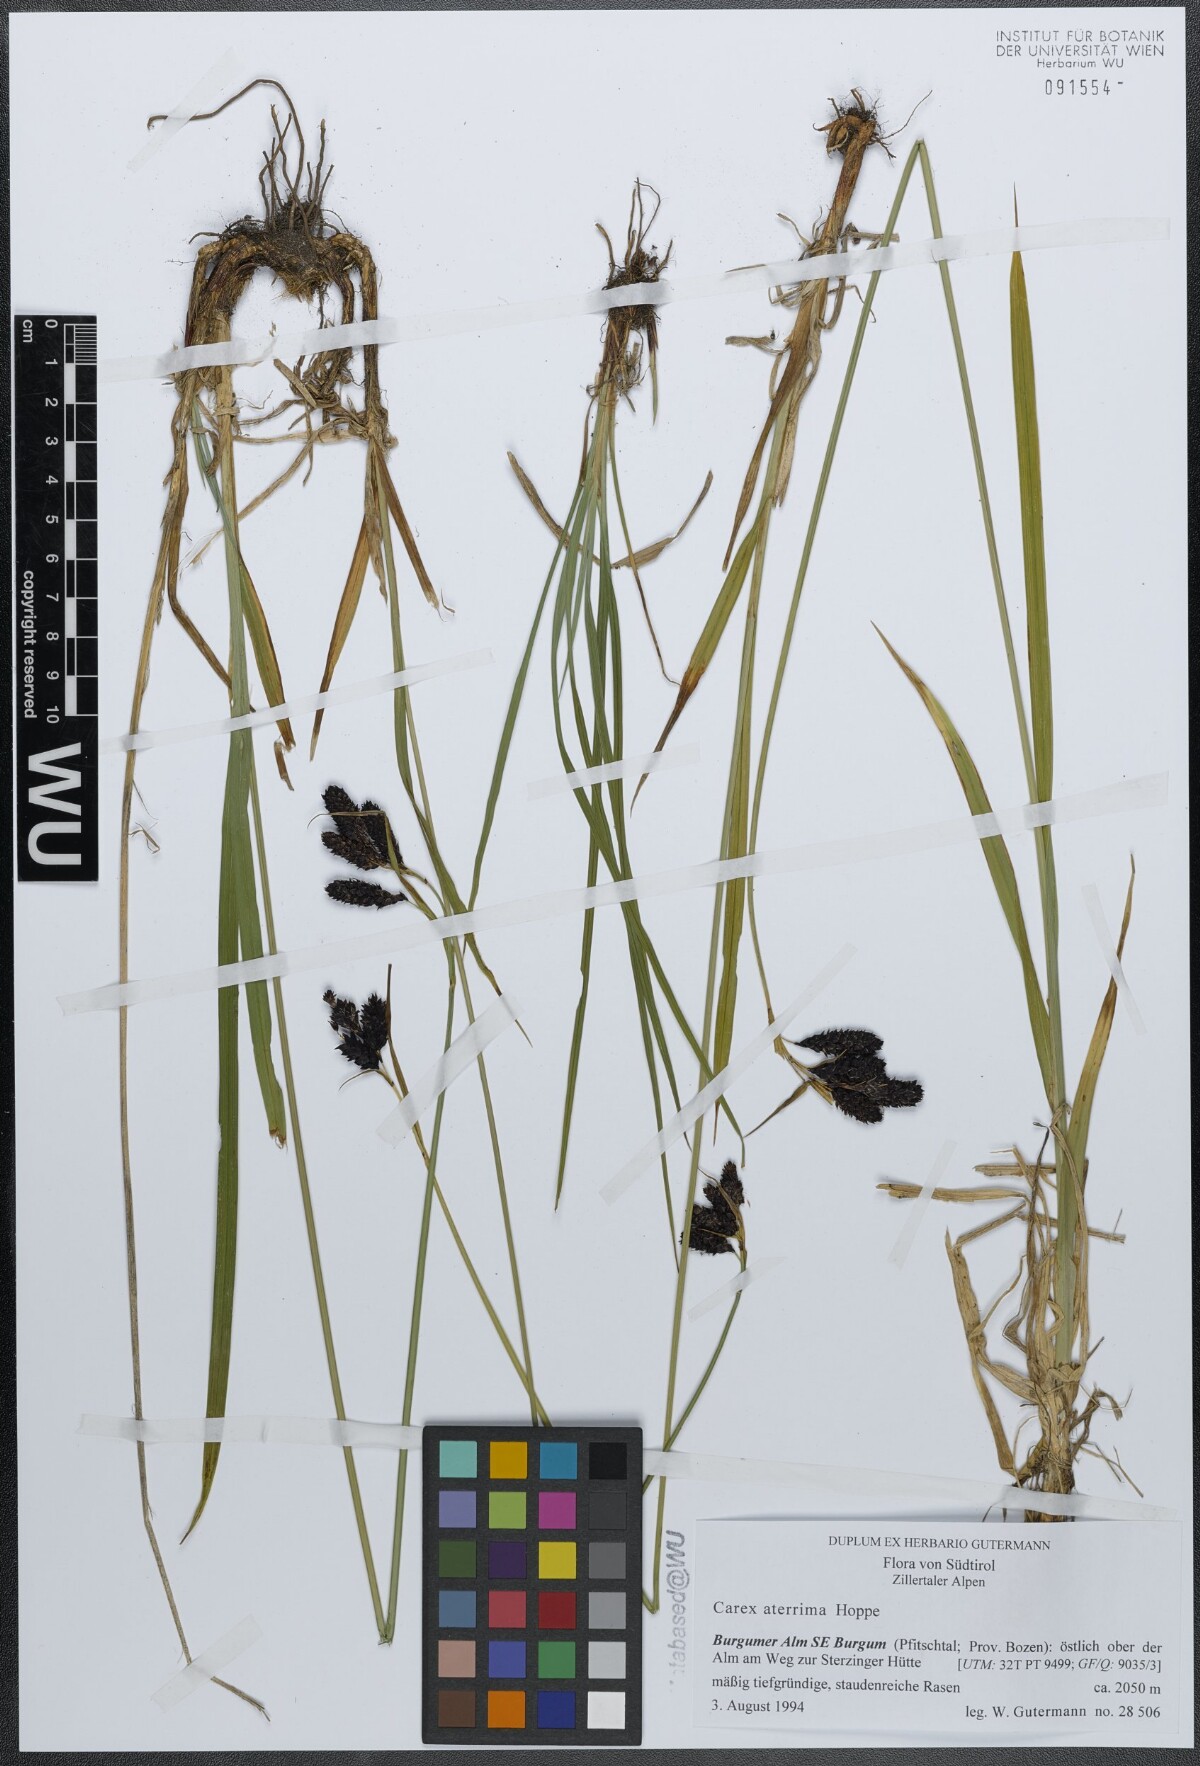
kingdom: Plantae
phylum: Tracheophyta
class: Liliopsida
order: Poales
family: Cyperaceae
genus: Carex
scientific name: Carex aterrima
